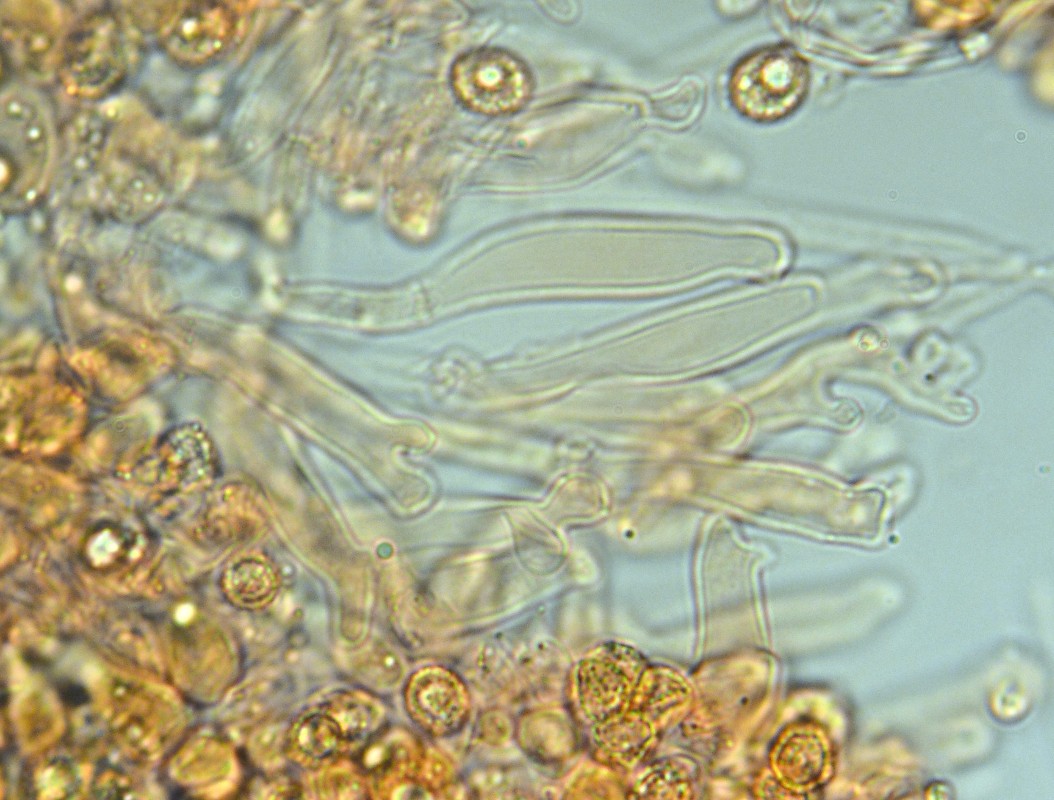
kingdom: Fungi
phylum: Basidiomycota
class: Agaricomycetes
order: Agaricales
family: Crepidotaceae
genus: Crepidotus
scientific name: Crepidotus cesatii
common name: almindelig muslingesvamp
